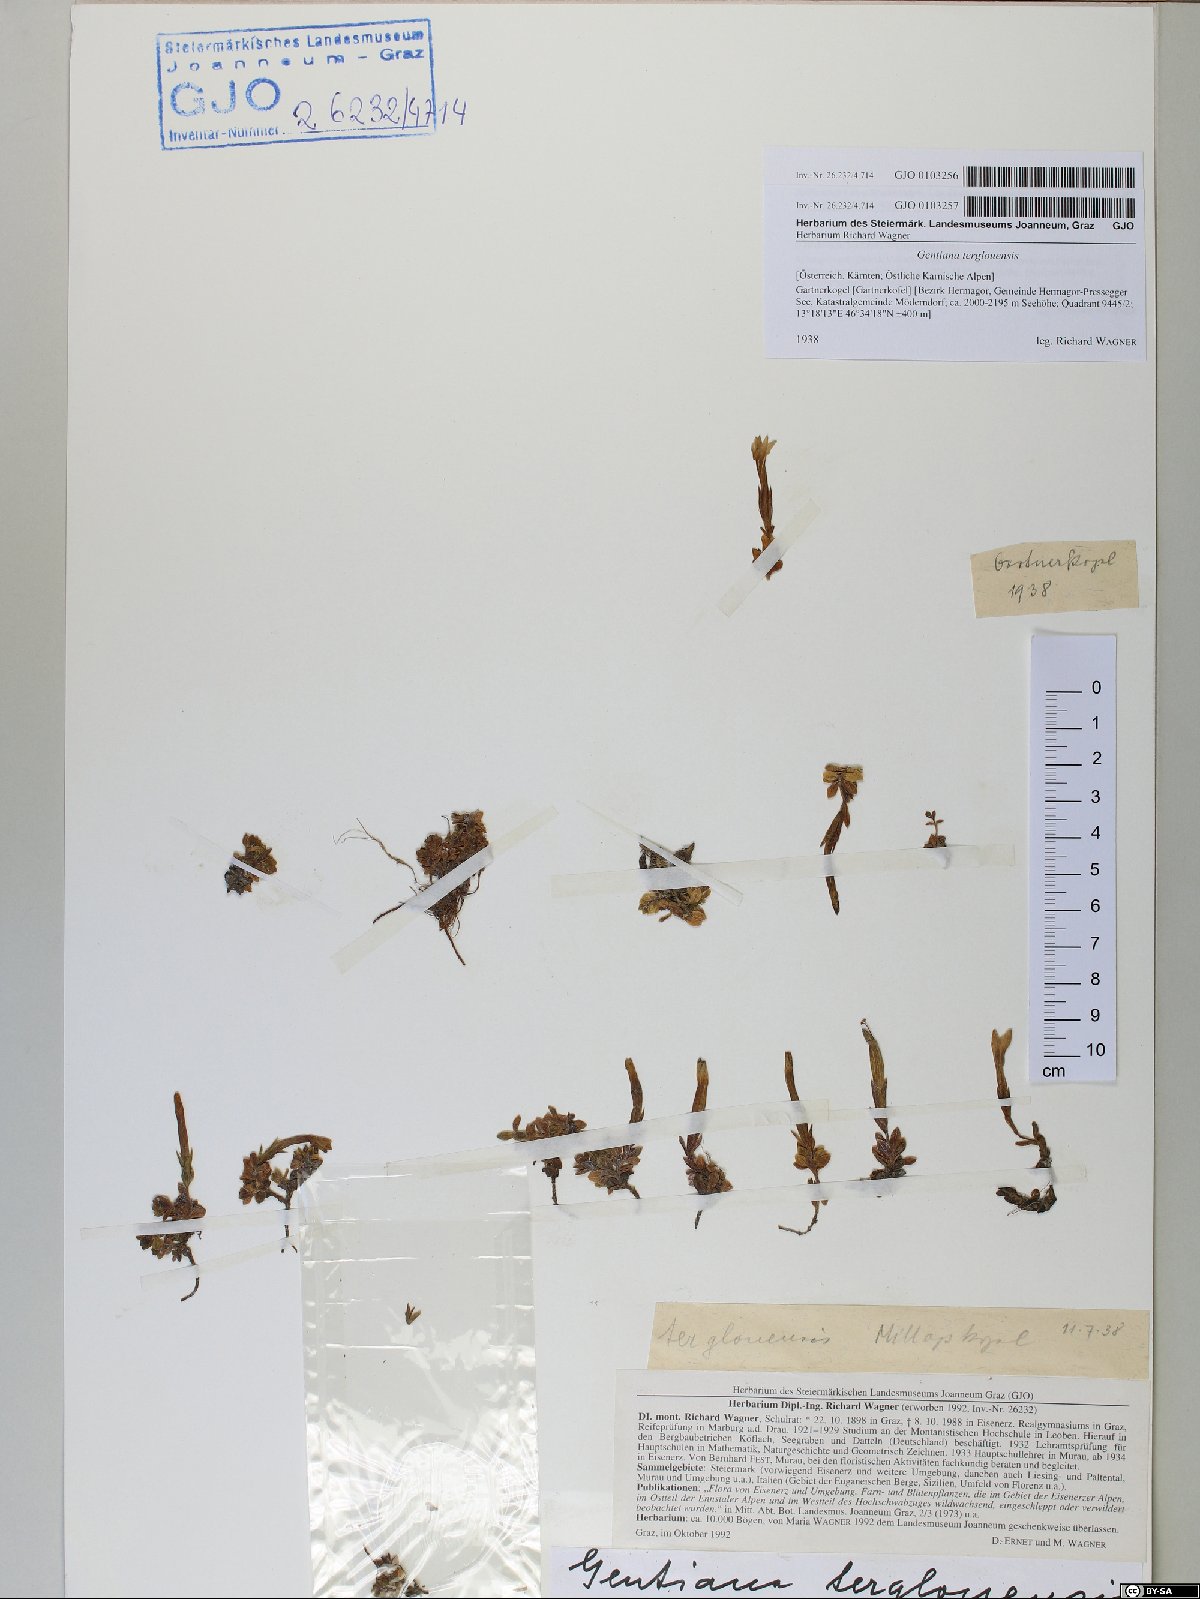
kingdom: Plantae
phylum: Tracheophyta
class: Magnoliopsida
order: Gentianales
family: Gentianaceae
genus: Gentiana
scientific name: Gentiana terglouensis
